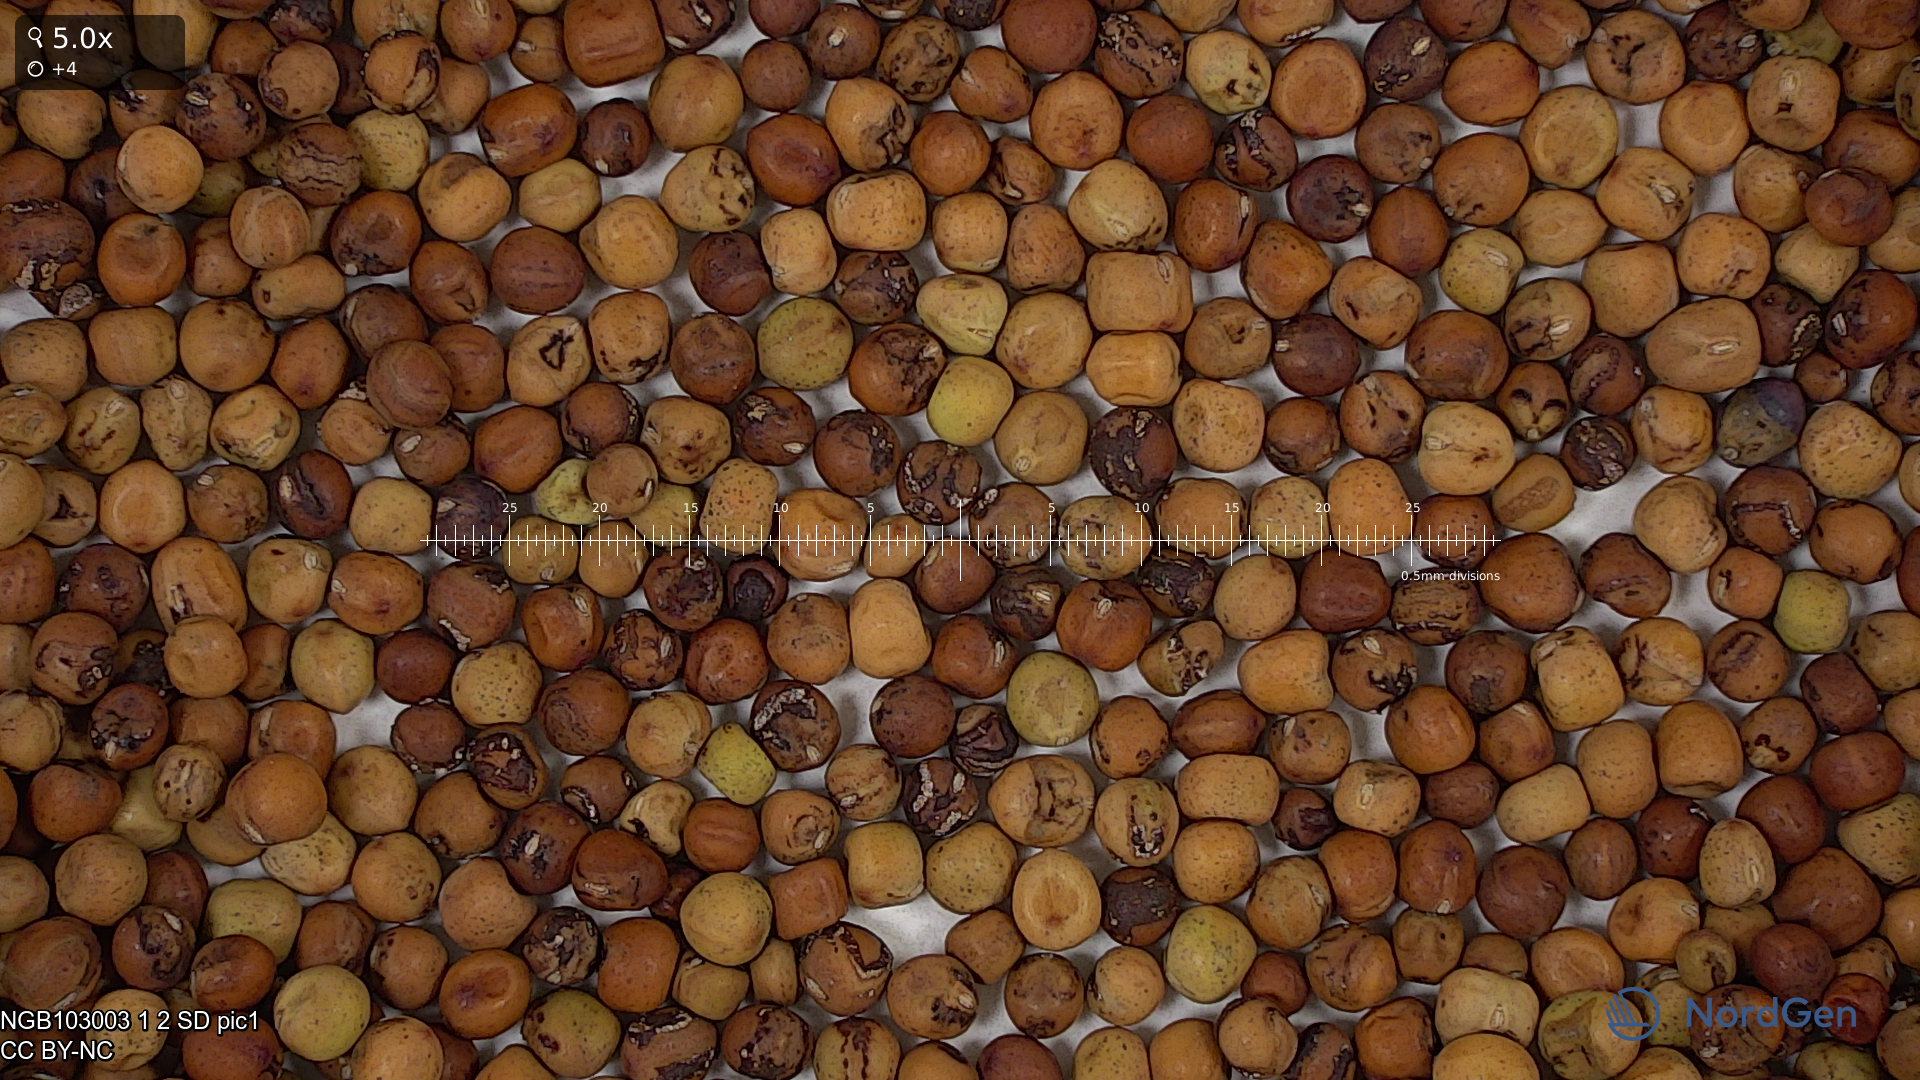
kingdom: Plantae
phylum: Tracheophyta
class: Magnoliopsida
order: Fabales
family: Fabaceae
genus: Lathyrus
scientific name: Lathyrus oleraceus
